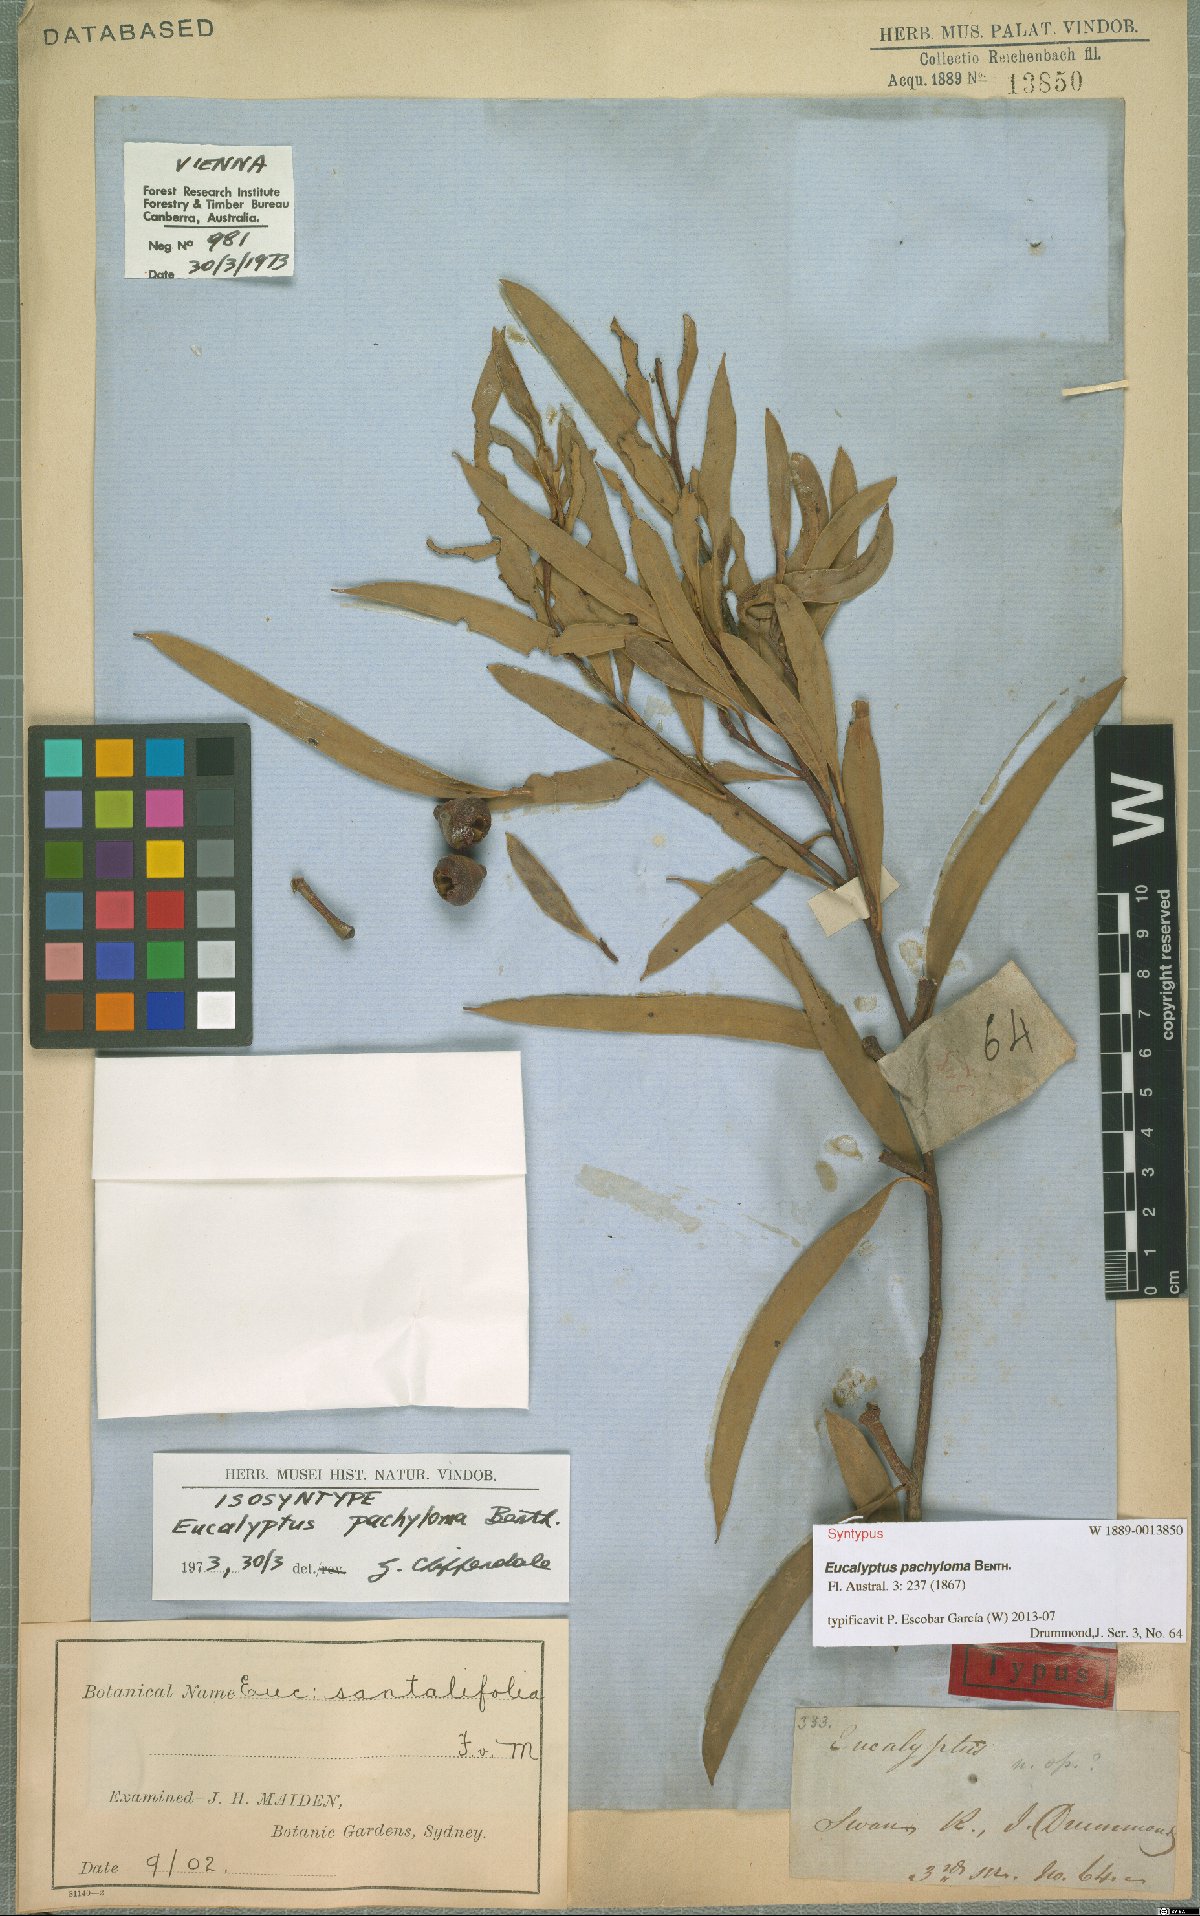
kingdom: Plantae
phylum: Tracheophyta
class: Magnoliopsida
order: Myrtales
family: Myrtaceae
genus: Eucalyptus
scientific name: Eucalyptus pachyloma
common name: Kalgan plains mallee
